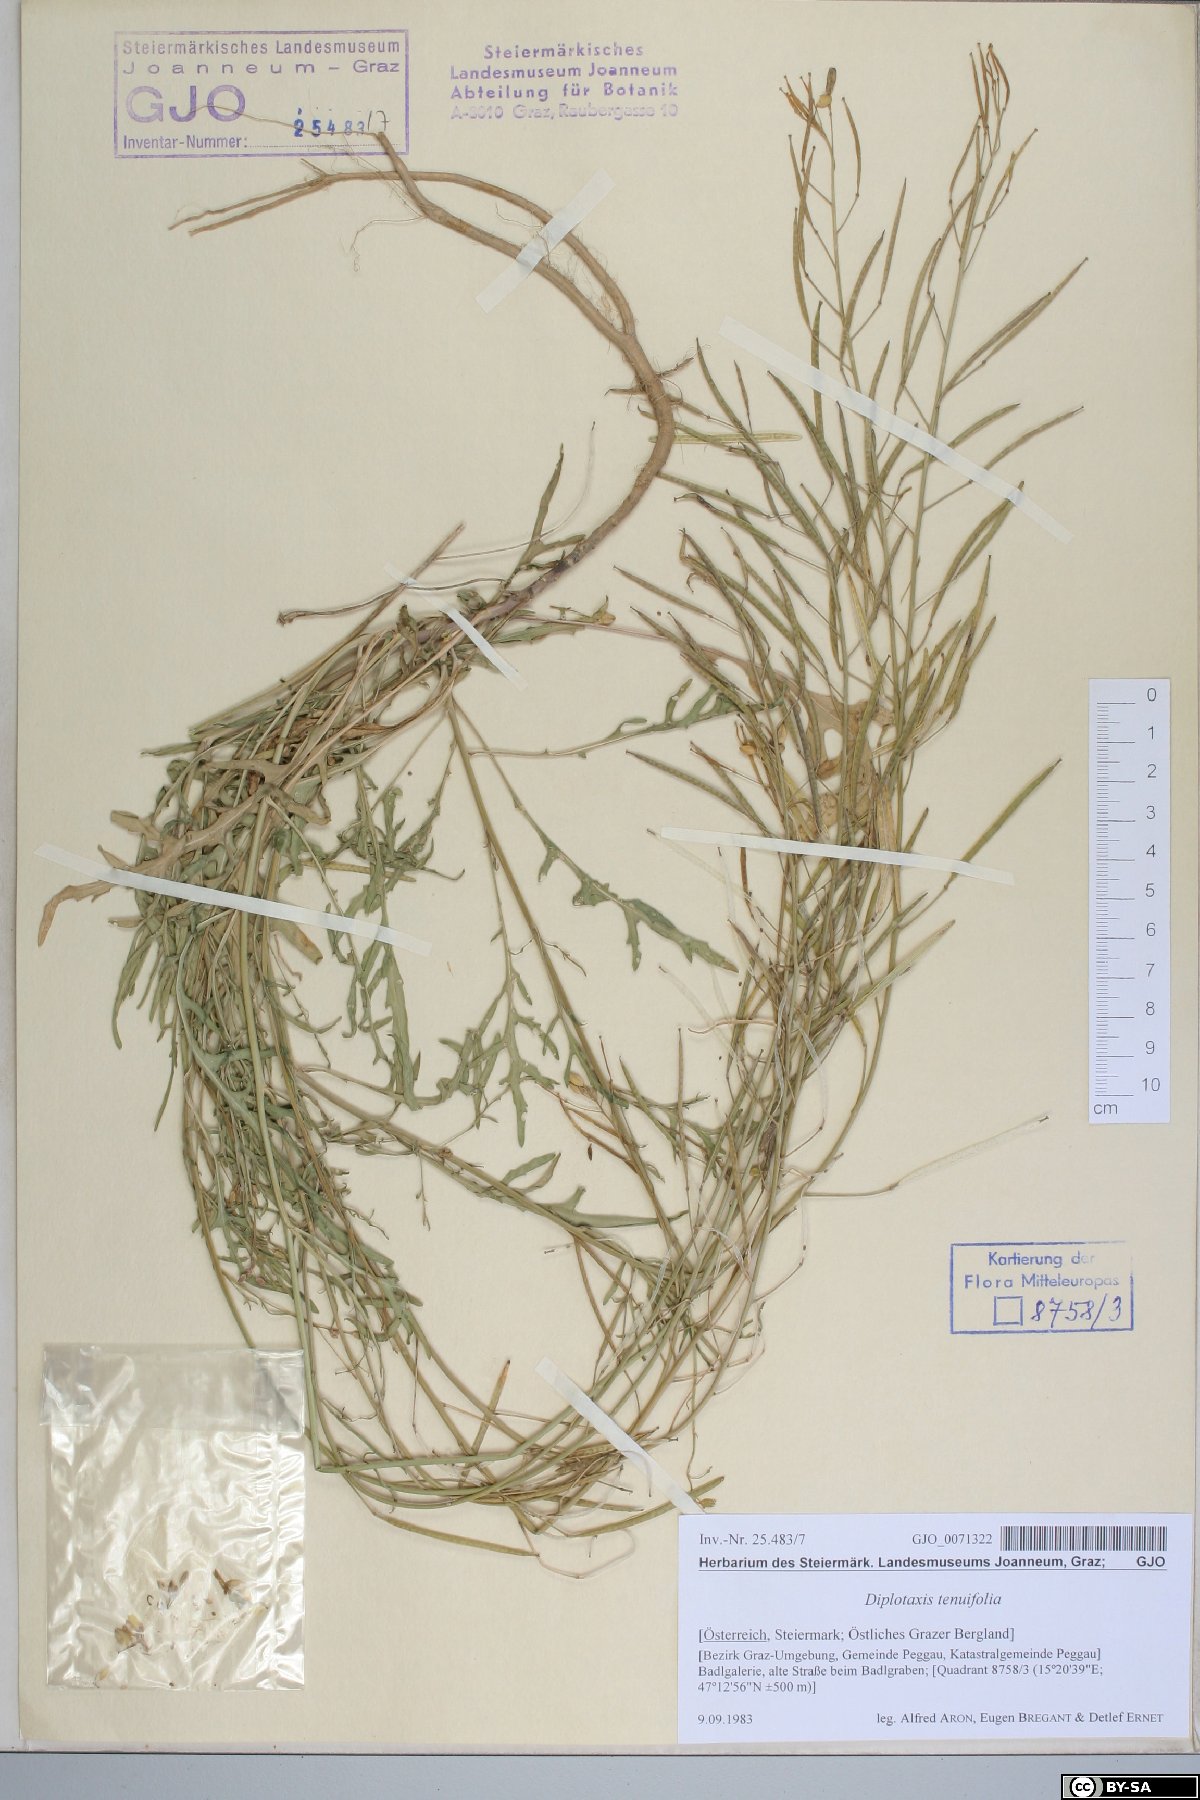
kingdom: Plantae
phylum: Tracheophyta
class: Magnoliopsida
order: Brassicales
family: Brassicaceae
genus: Diplotaxis
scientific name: Diplotaxis tenuifolia
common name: Perennial wall-rocket
